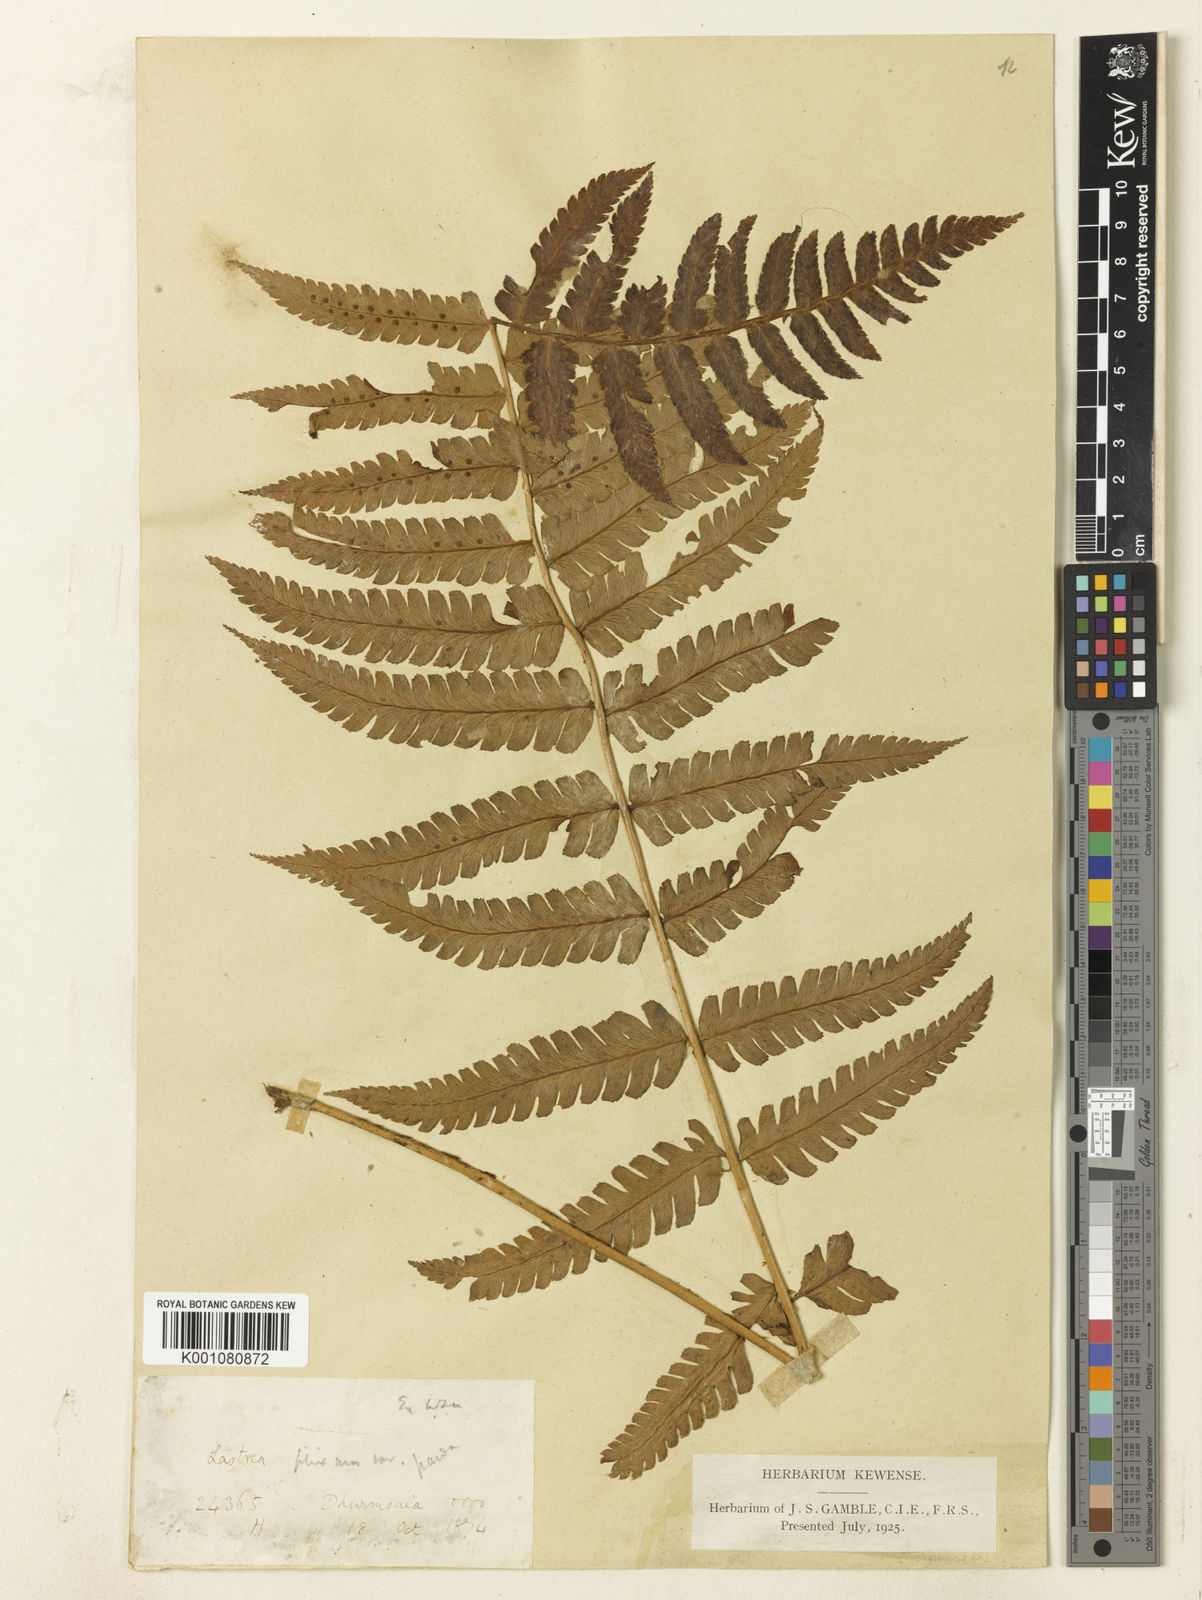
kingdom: Plantae
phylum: Tracheophyta
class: Polypodiopsida
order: Polypodiales
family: Dryopteridaceae
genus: Dryopteris
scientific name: Dryopteris panda
